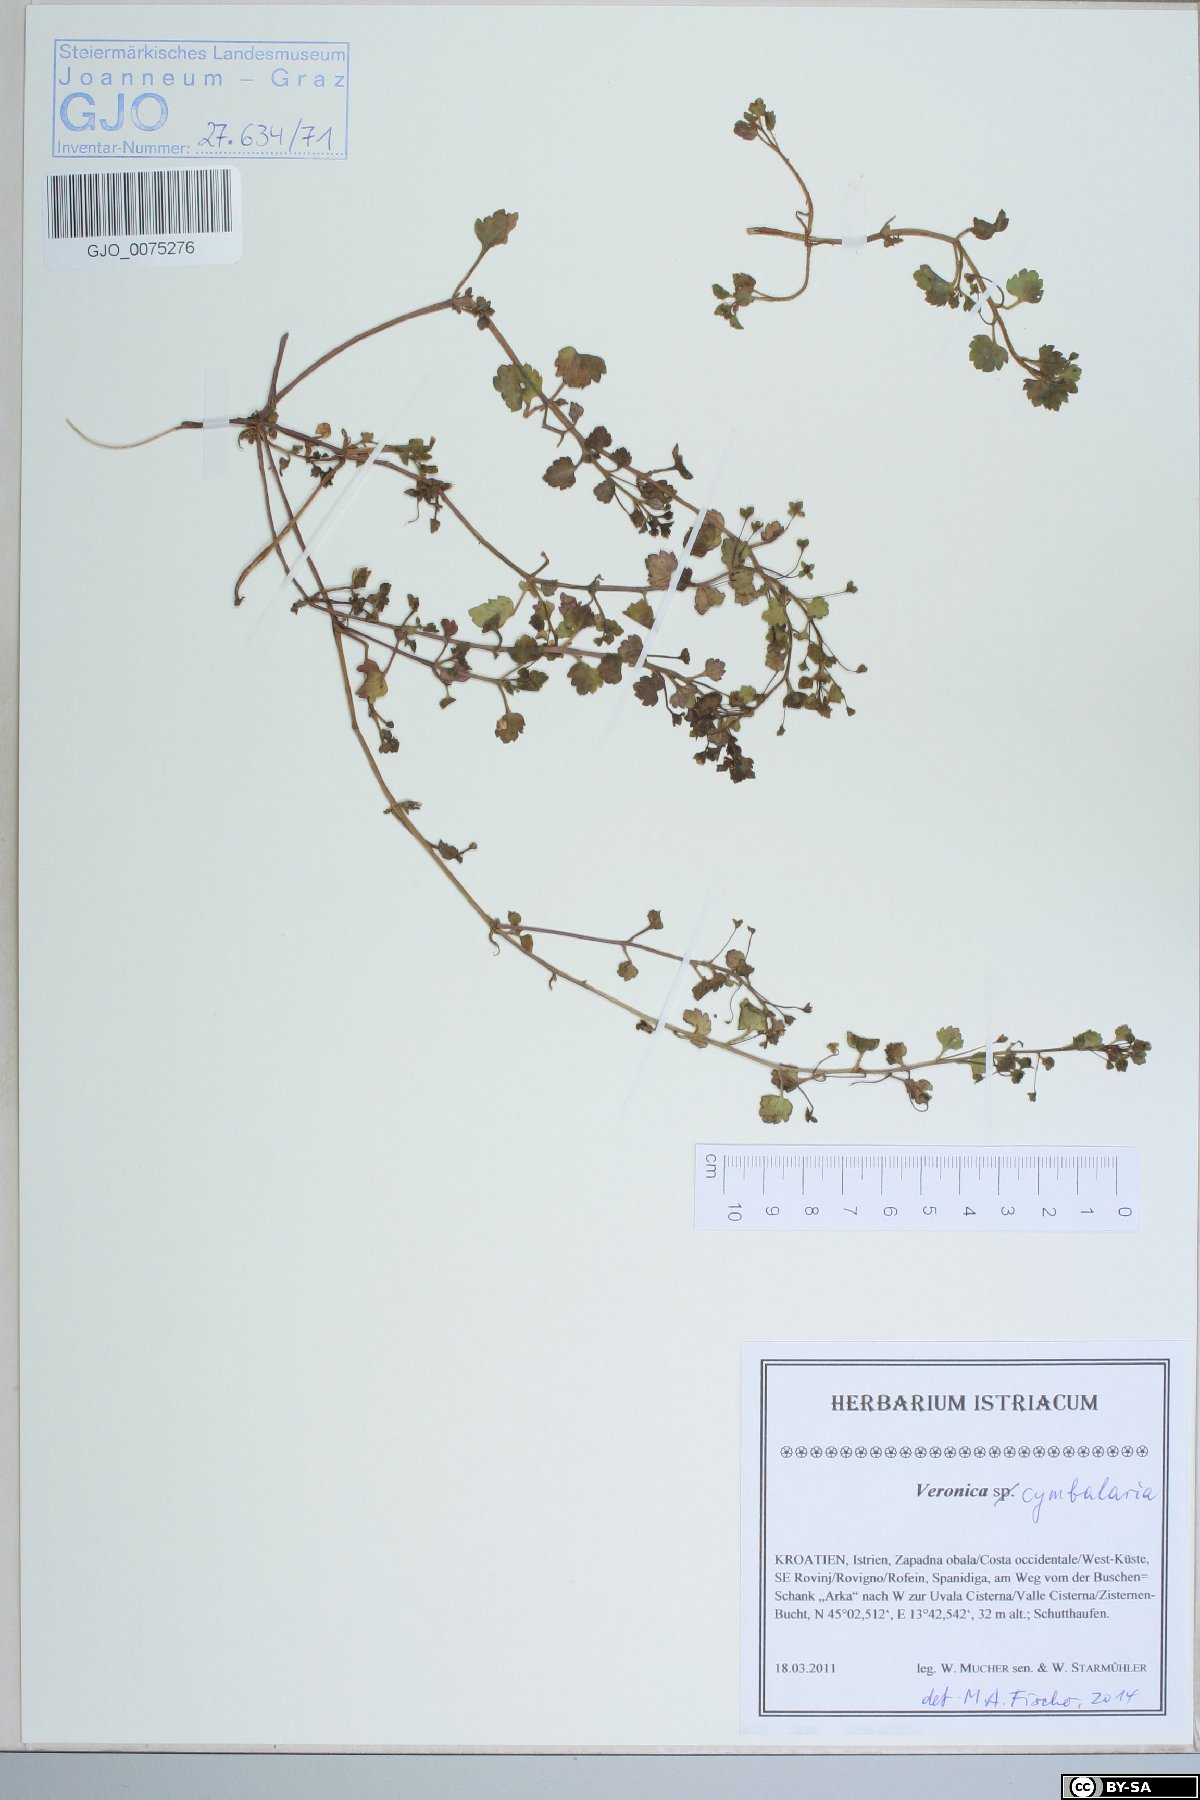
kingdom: Plantae
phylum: Tracheophyta
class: Magnoliopsida
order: Lamiales
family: Plantaginaceae
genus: Veronica
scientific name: Veronica cymbalaria
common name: Pale speedwell
